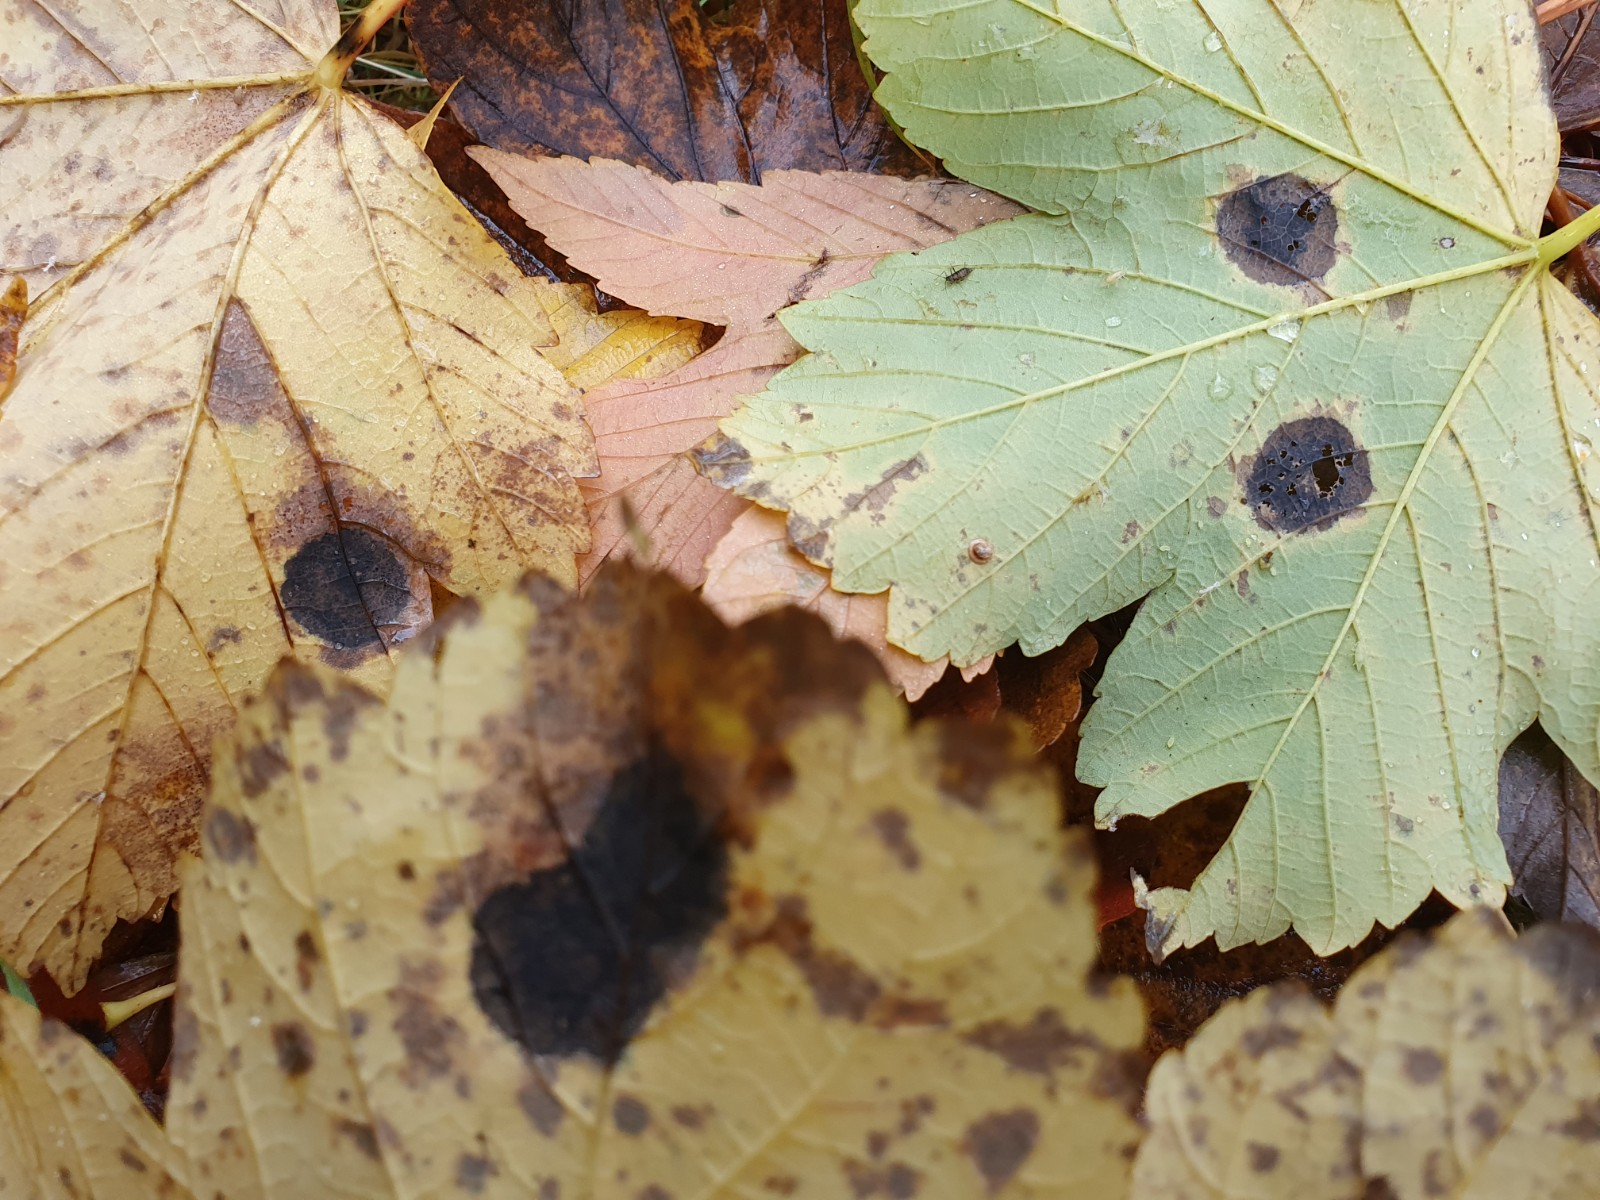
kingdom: Fungi
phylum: Ascomycota
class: Leotiomycetes
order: Rhytismatales
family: Rhytismataceae
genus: Rhytisma
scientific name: Rhytisma acerinum
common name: ahorn-rynkeplet
